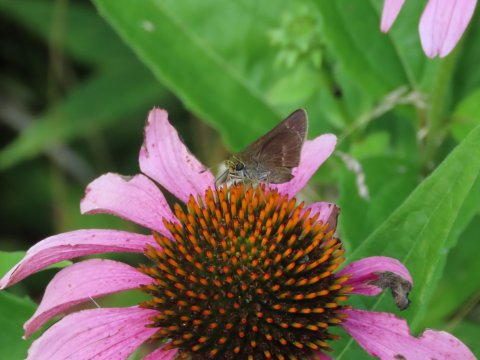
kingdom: Animalia
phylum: Arthropoda
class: Insecta
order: Lepidoptera
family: Hesperiidae
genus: Vernia
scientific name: Vernia verna
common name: Little Glassywing
